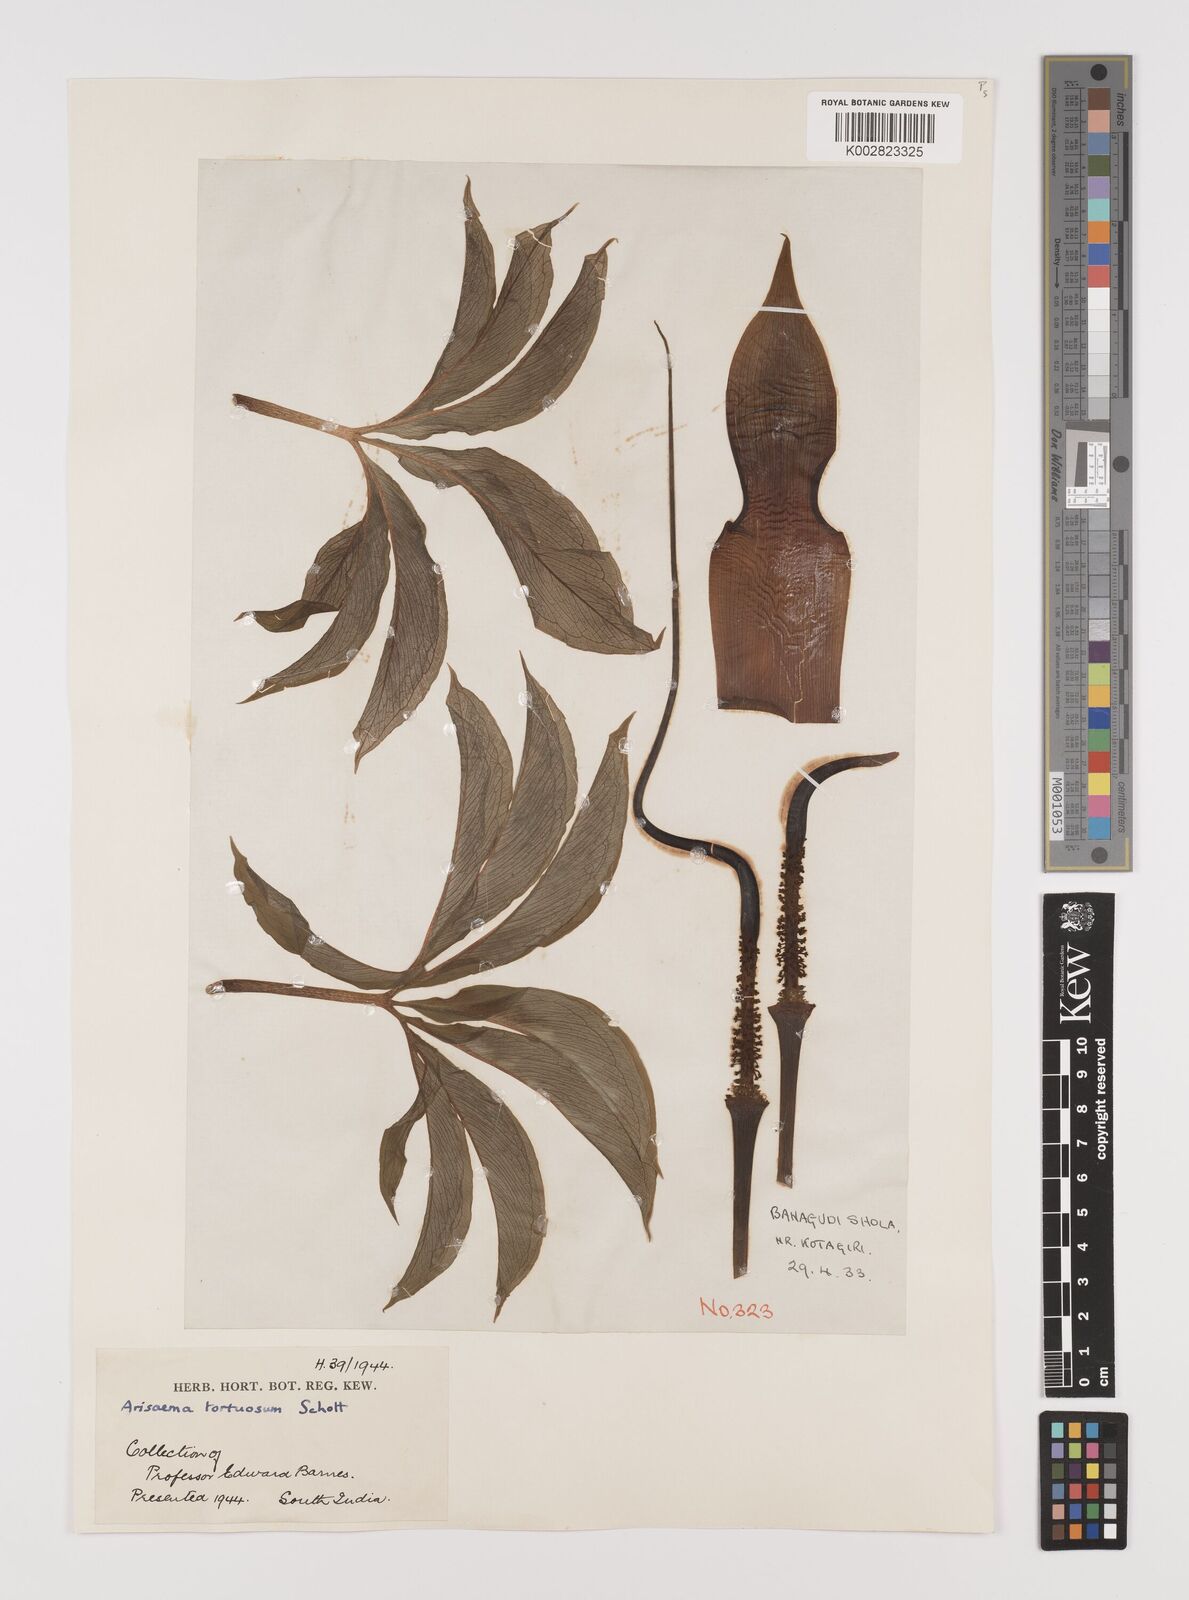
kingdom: Plantae
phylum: Tracheophyta
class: Liliopsida
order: Alismatales
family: Araceae
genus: Arisaema
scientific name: Arisaema tortuosum
